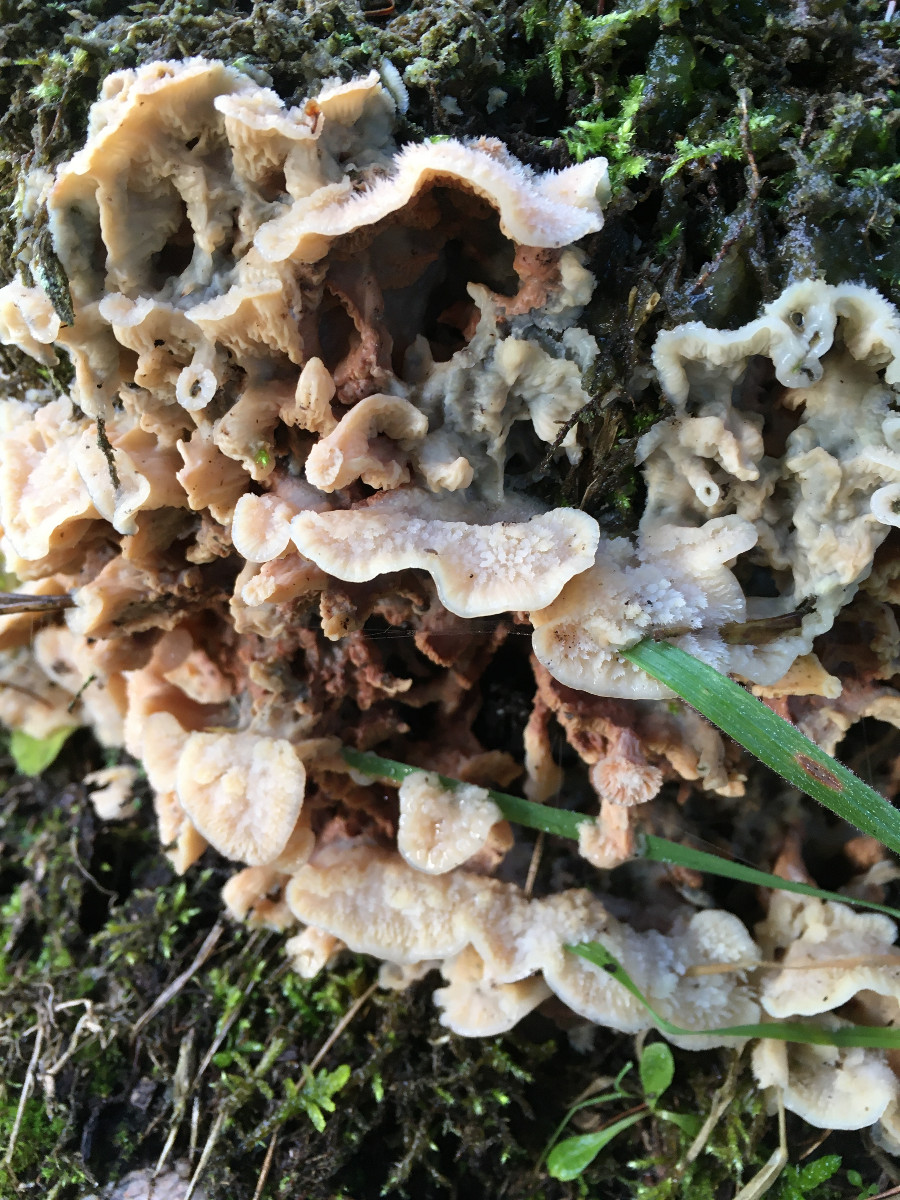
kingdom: Fungi
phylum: Basidiomycota
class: Agaricomycetes
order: Polyporales
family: Meruliaceae
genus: Phlebia
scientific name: Phlebia tremellosa
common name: bævrende åresvamp
